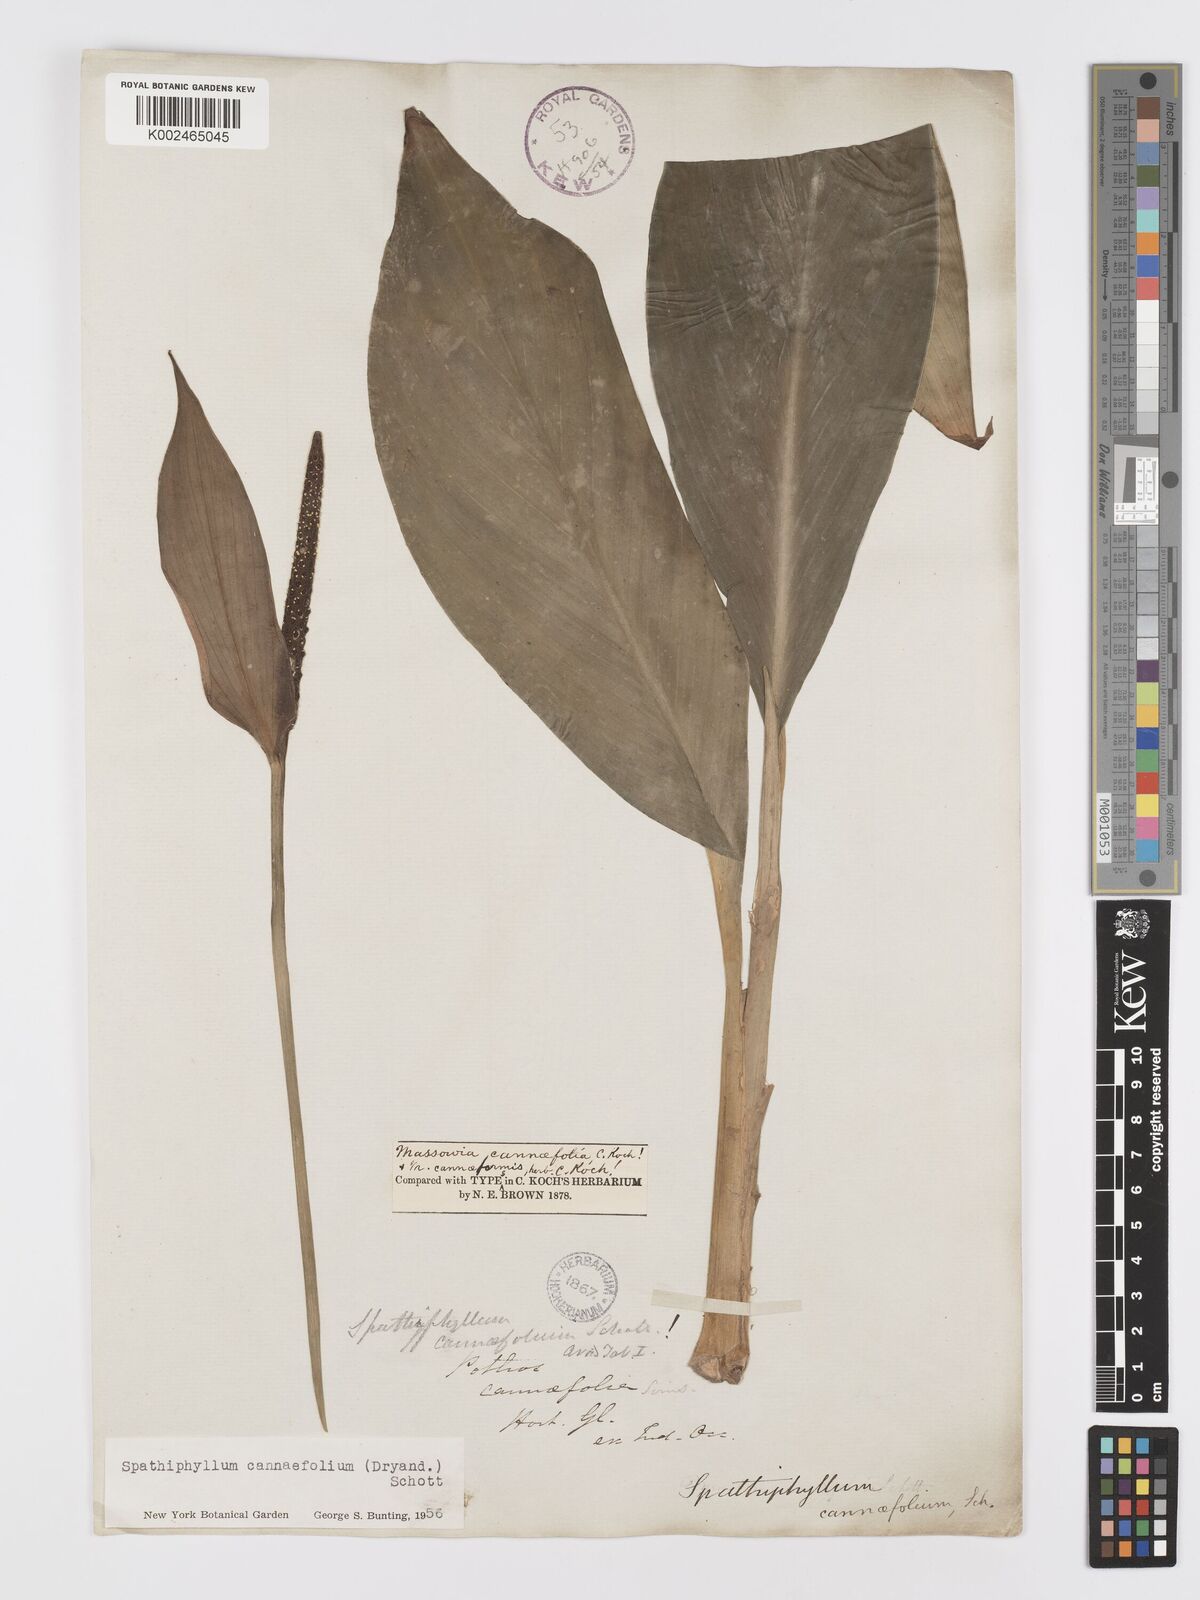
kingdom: Plantae
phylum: Tracheophyta
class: Liliopsida
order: Alismatales
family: Araceae
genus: Spathiphyllum
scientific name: Spathiphyllum cannifolium
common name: Spatheflower
